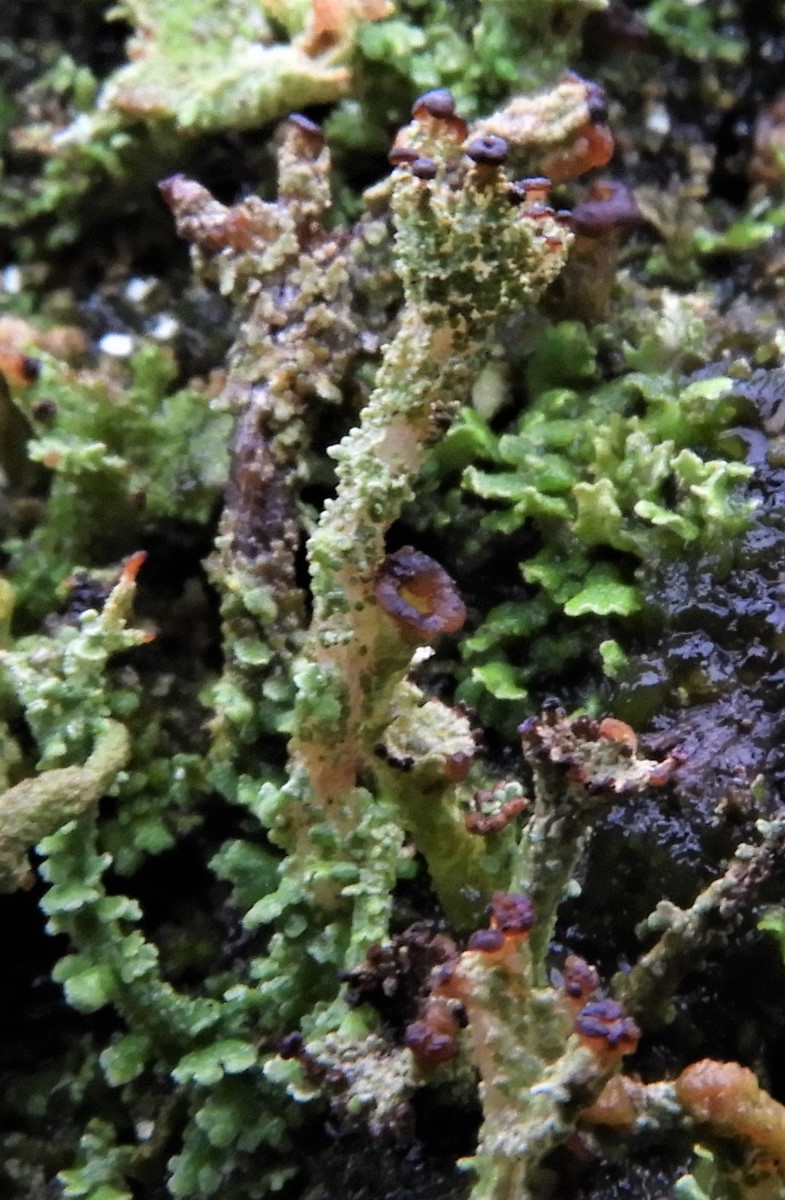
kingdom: Fungi
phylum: Ascomycota
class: Lecanoromycetes
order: Lecanorales
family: Cladoniaceae
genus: Cladonia
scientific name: Cladonia ramulosa
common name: kliddet bægerlav
